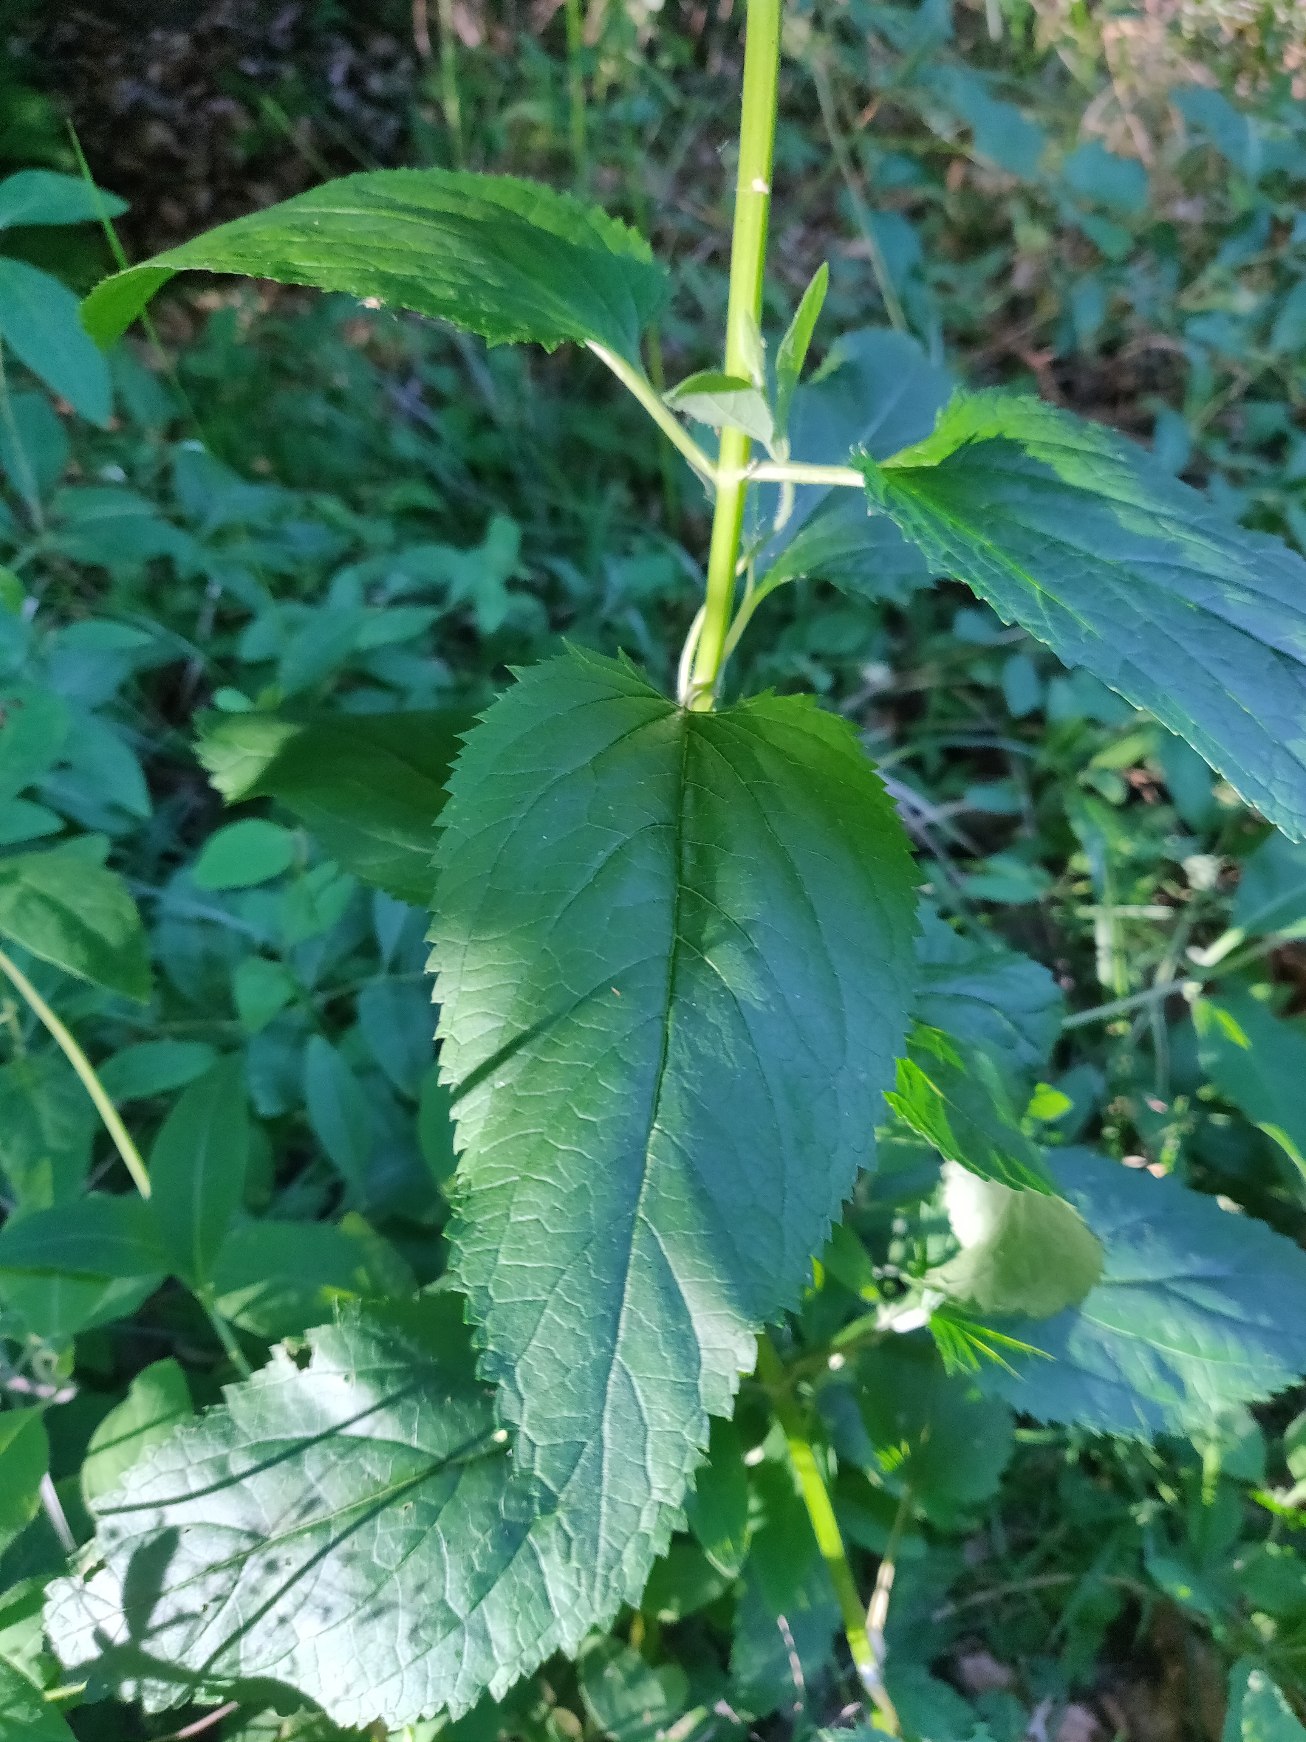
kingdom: Plantae
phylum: Tracheophyta
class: Magnoliopsida
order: Lamiales
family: Scrophulariaceae
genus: Scrophularia
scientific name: Scrophularia nodosa
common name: Knoldet brunrod
